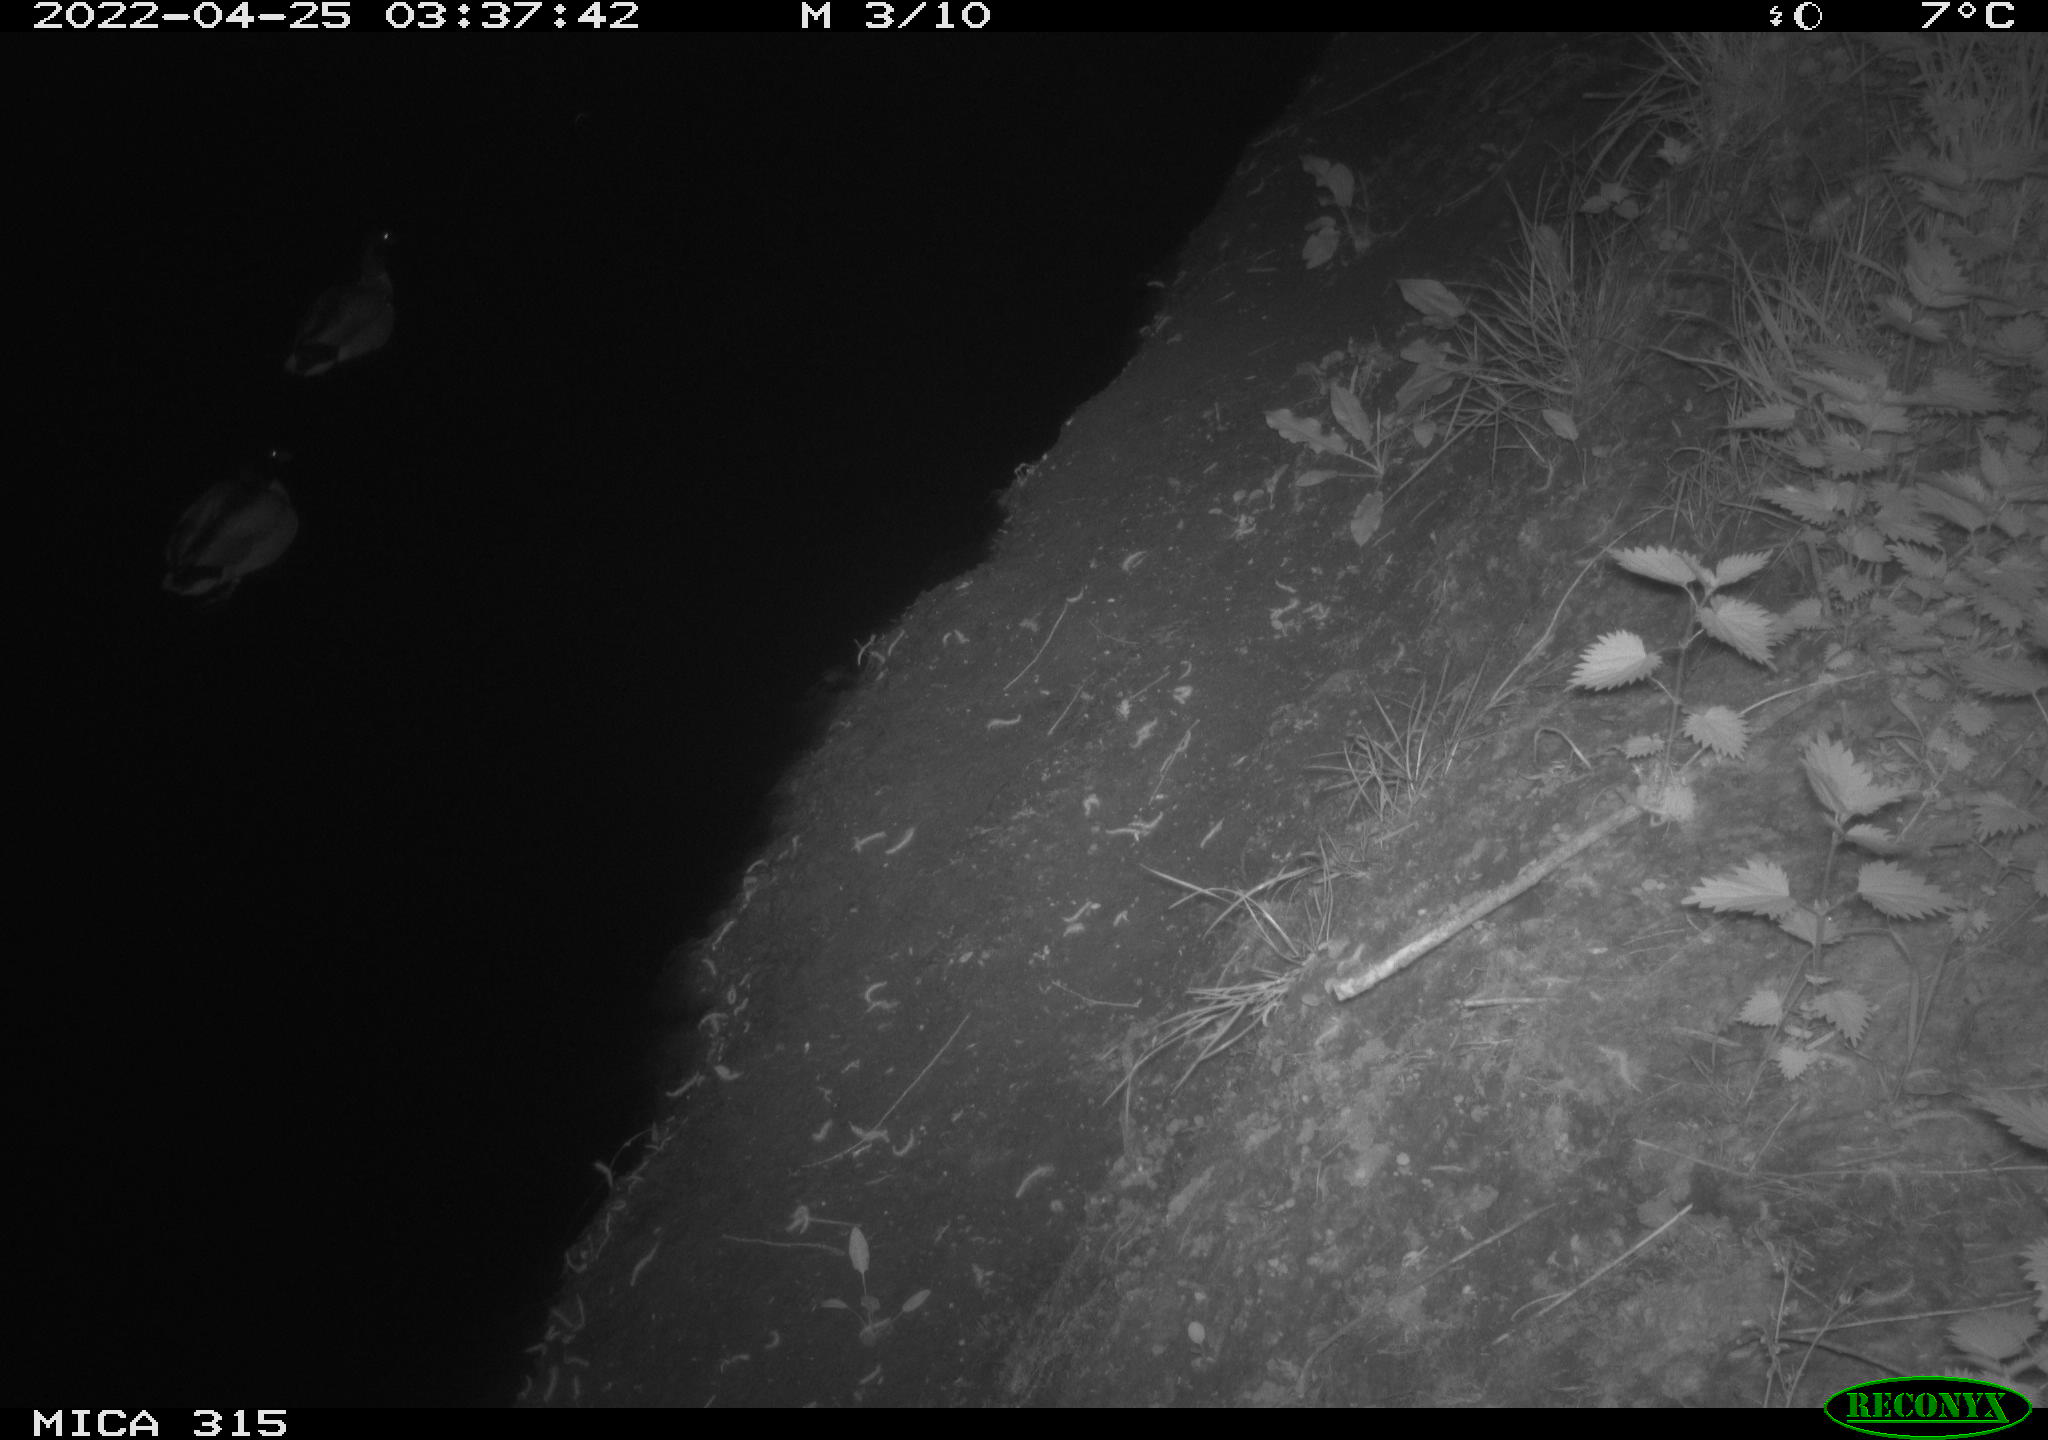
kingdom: Animalia
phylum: Chordata
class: Aves
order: Anseriformes
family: Anatidae
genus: Anas
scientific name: Anas platyrhynchos
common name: Mallard
